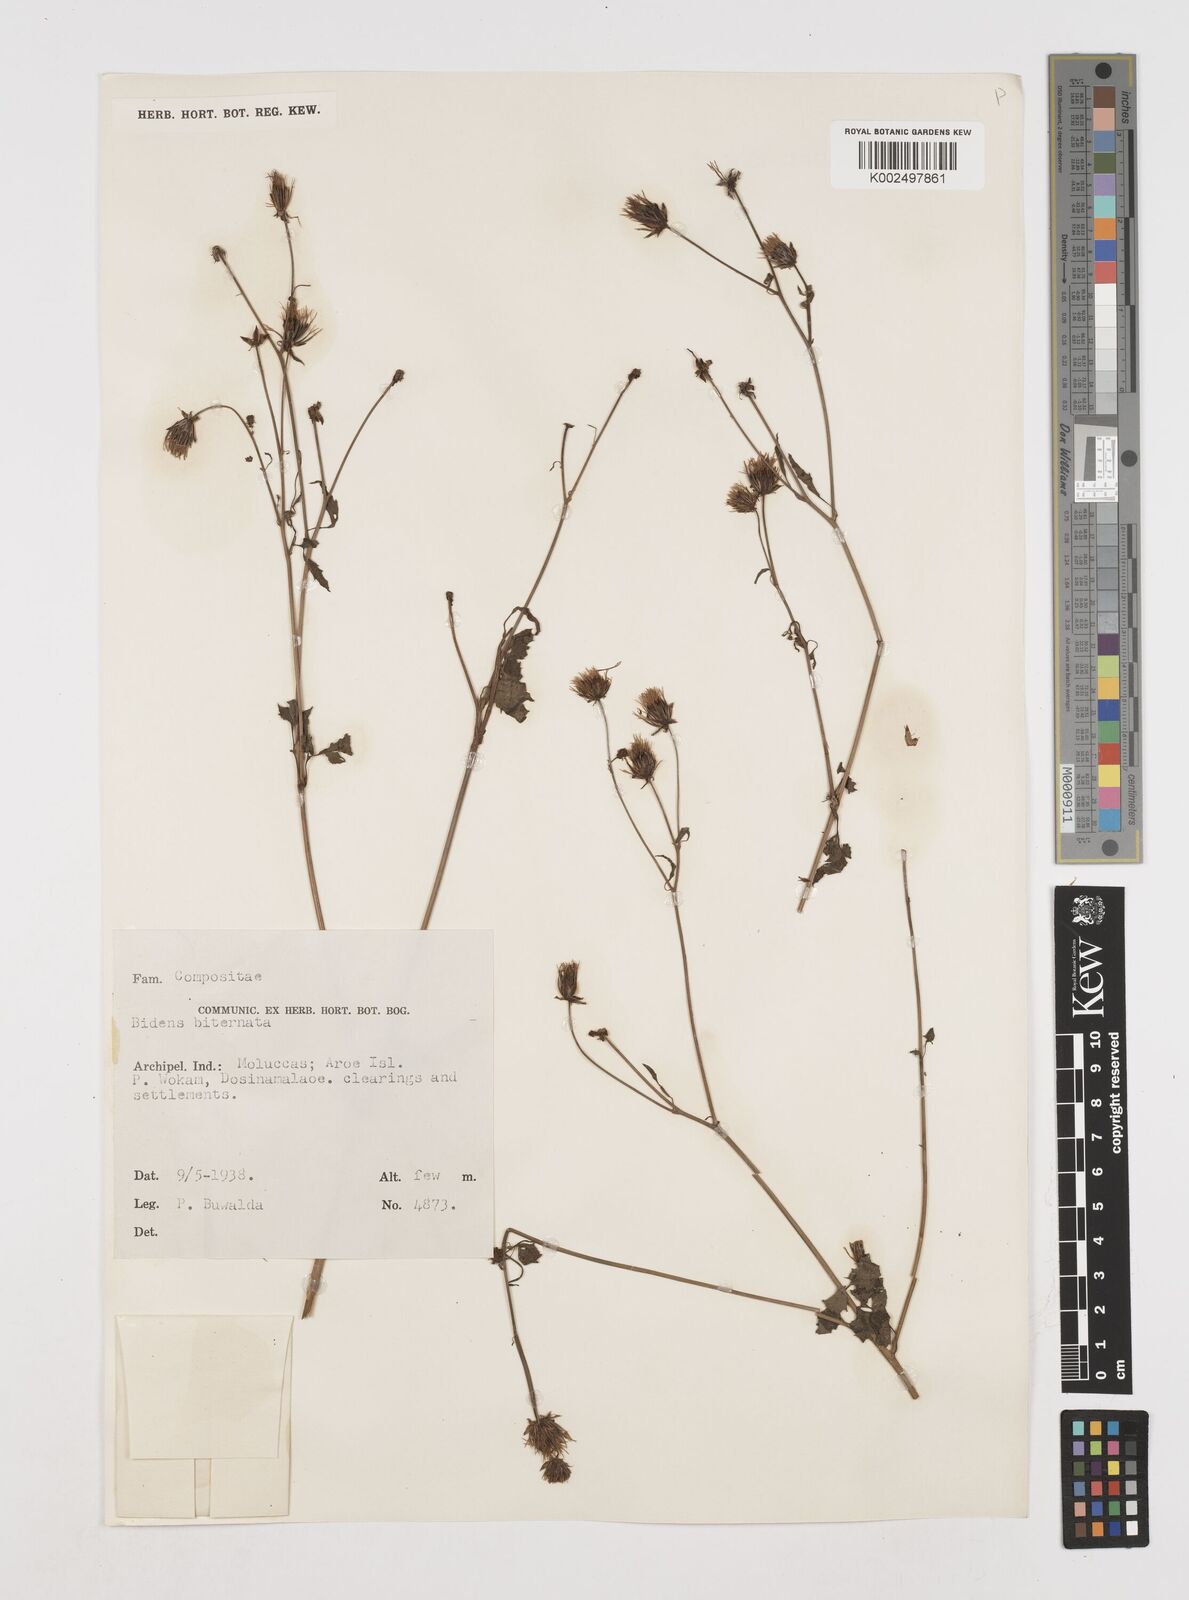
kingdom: Plantae
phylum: Tracheophyta
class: Magnoliopsida
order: Asterales
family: Asteraceae
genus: Bidens
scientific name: Bidens biternata
